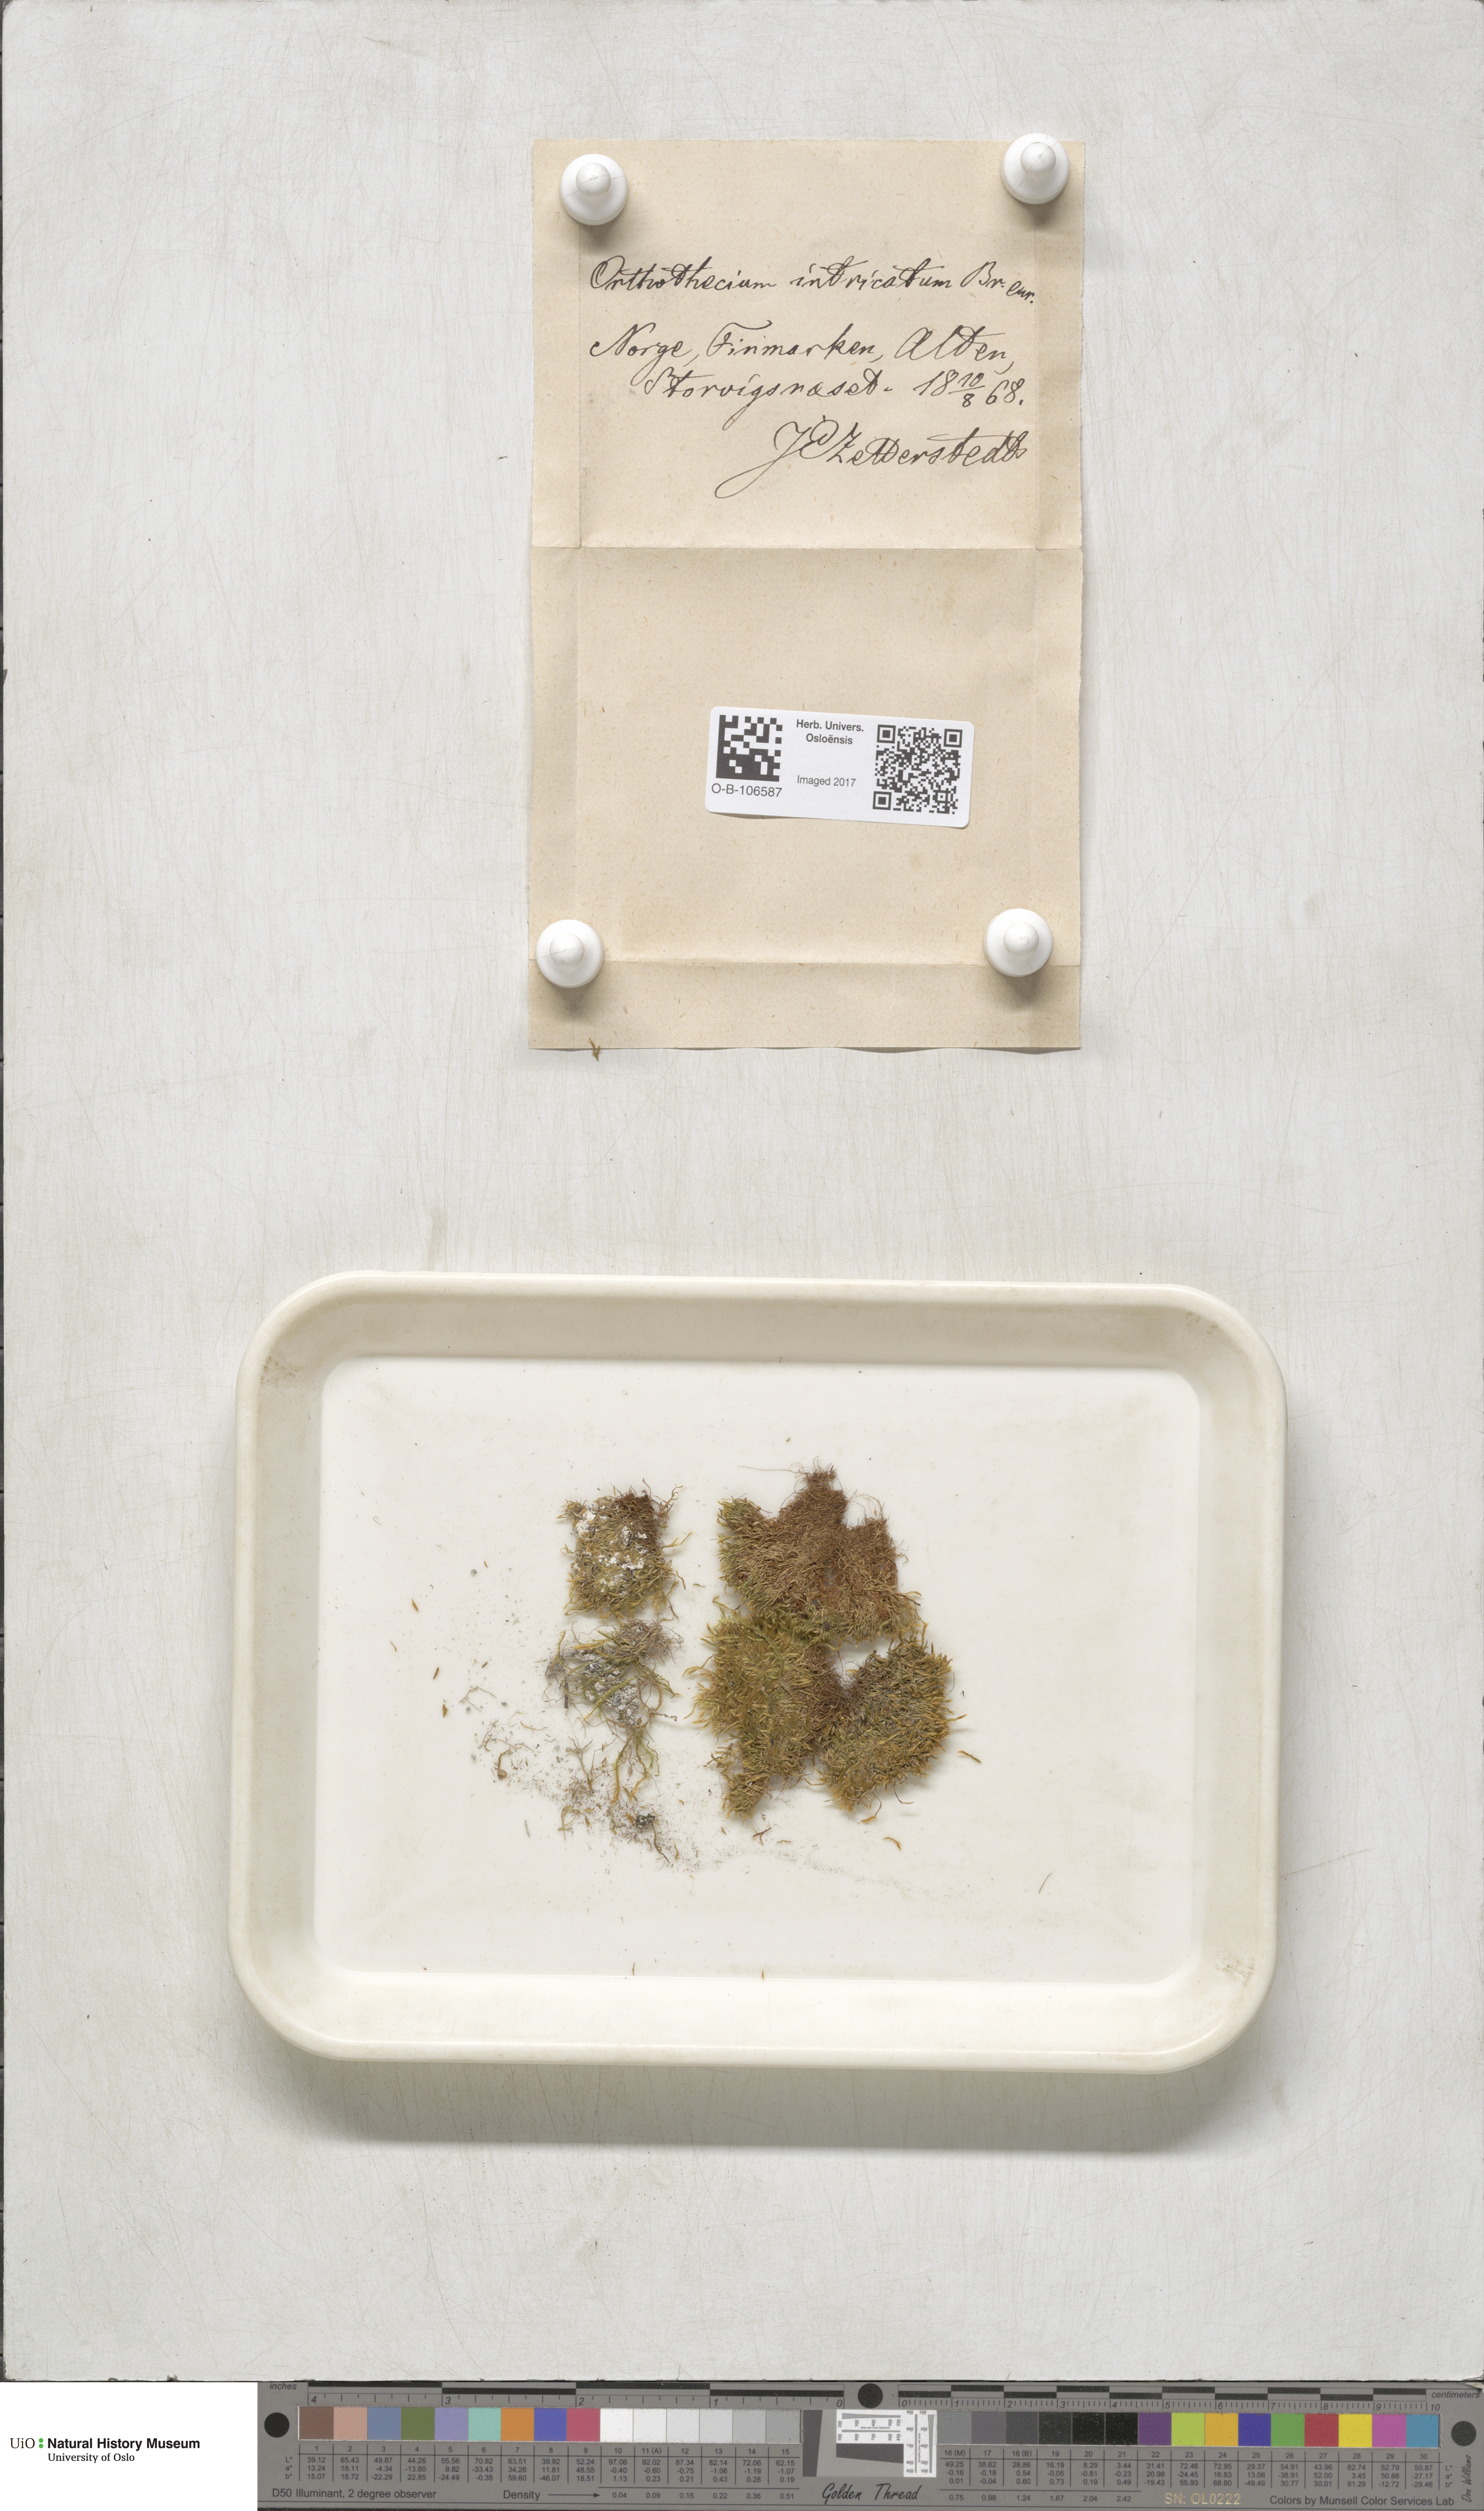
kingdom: Plantae
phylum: Bryophyta
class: Bryopsida
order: Hypnales
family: Plagiotheciaceae
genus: Orthothecium
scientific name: Orthothecium intricatum
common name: Fine-leaved erect-capsule moss
